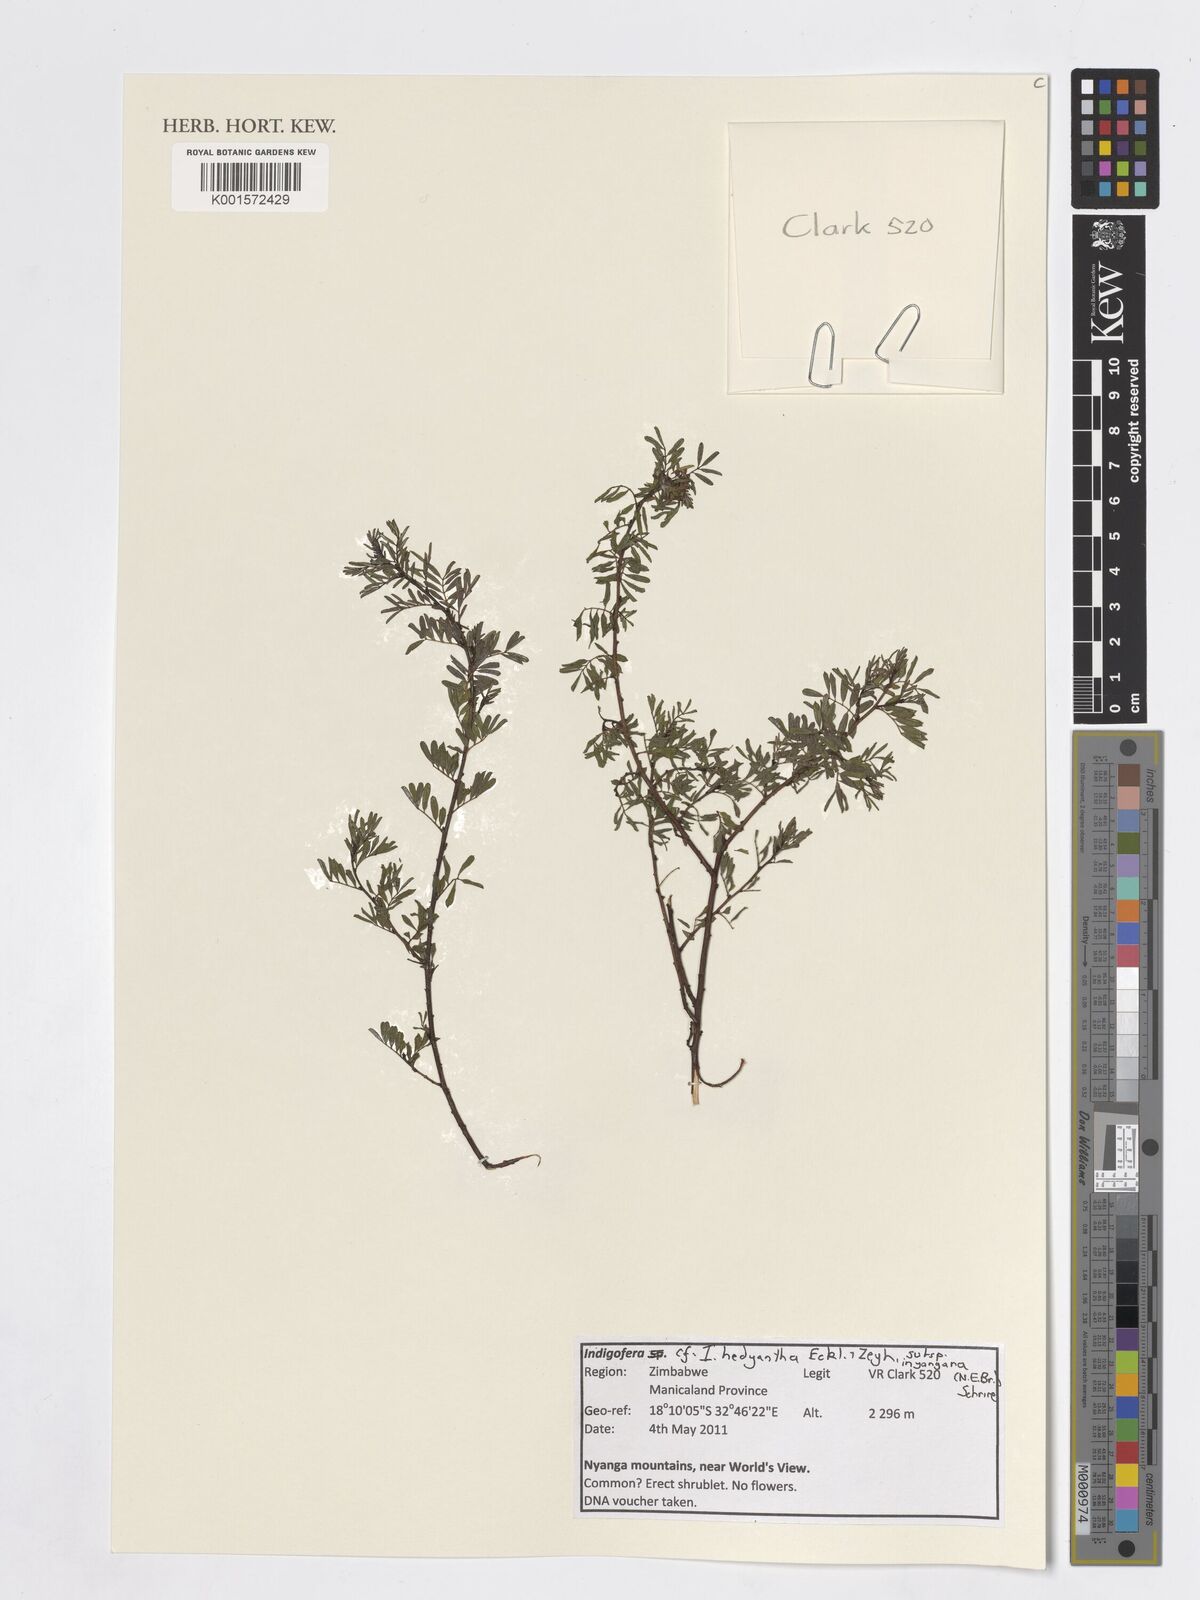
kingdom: Plantae
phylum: Tracheophyta
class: Magnoliopsida
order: Fabales
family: Fabaceae
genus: Indigofera
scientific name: Indigofera hedyantha
